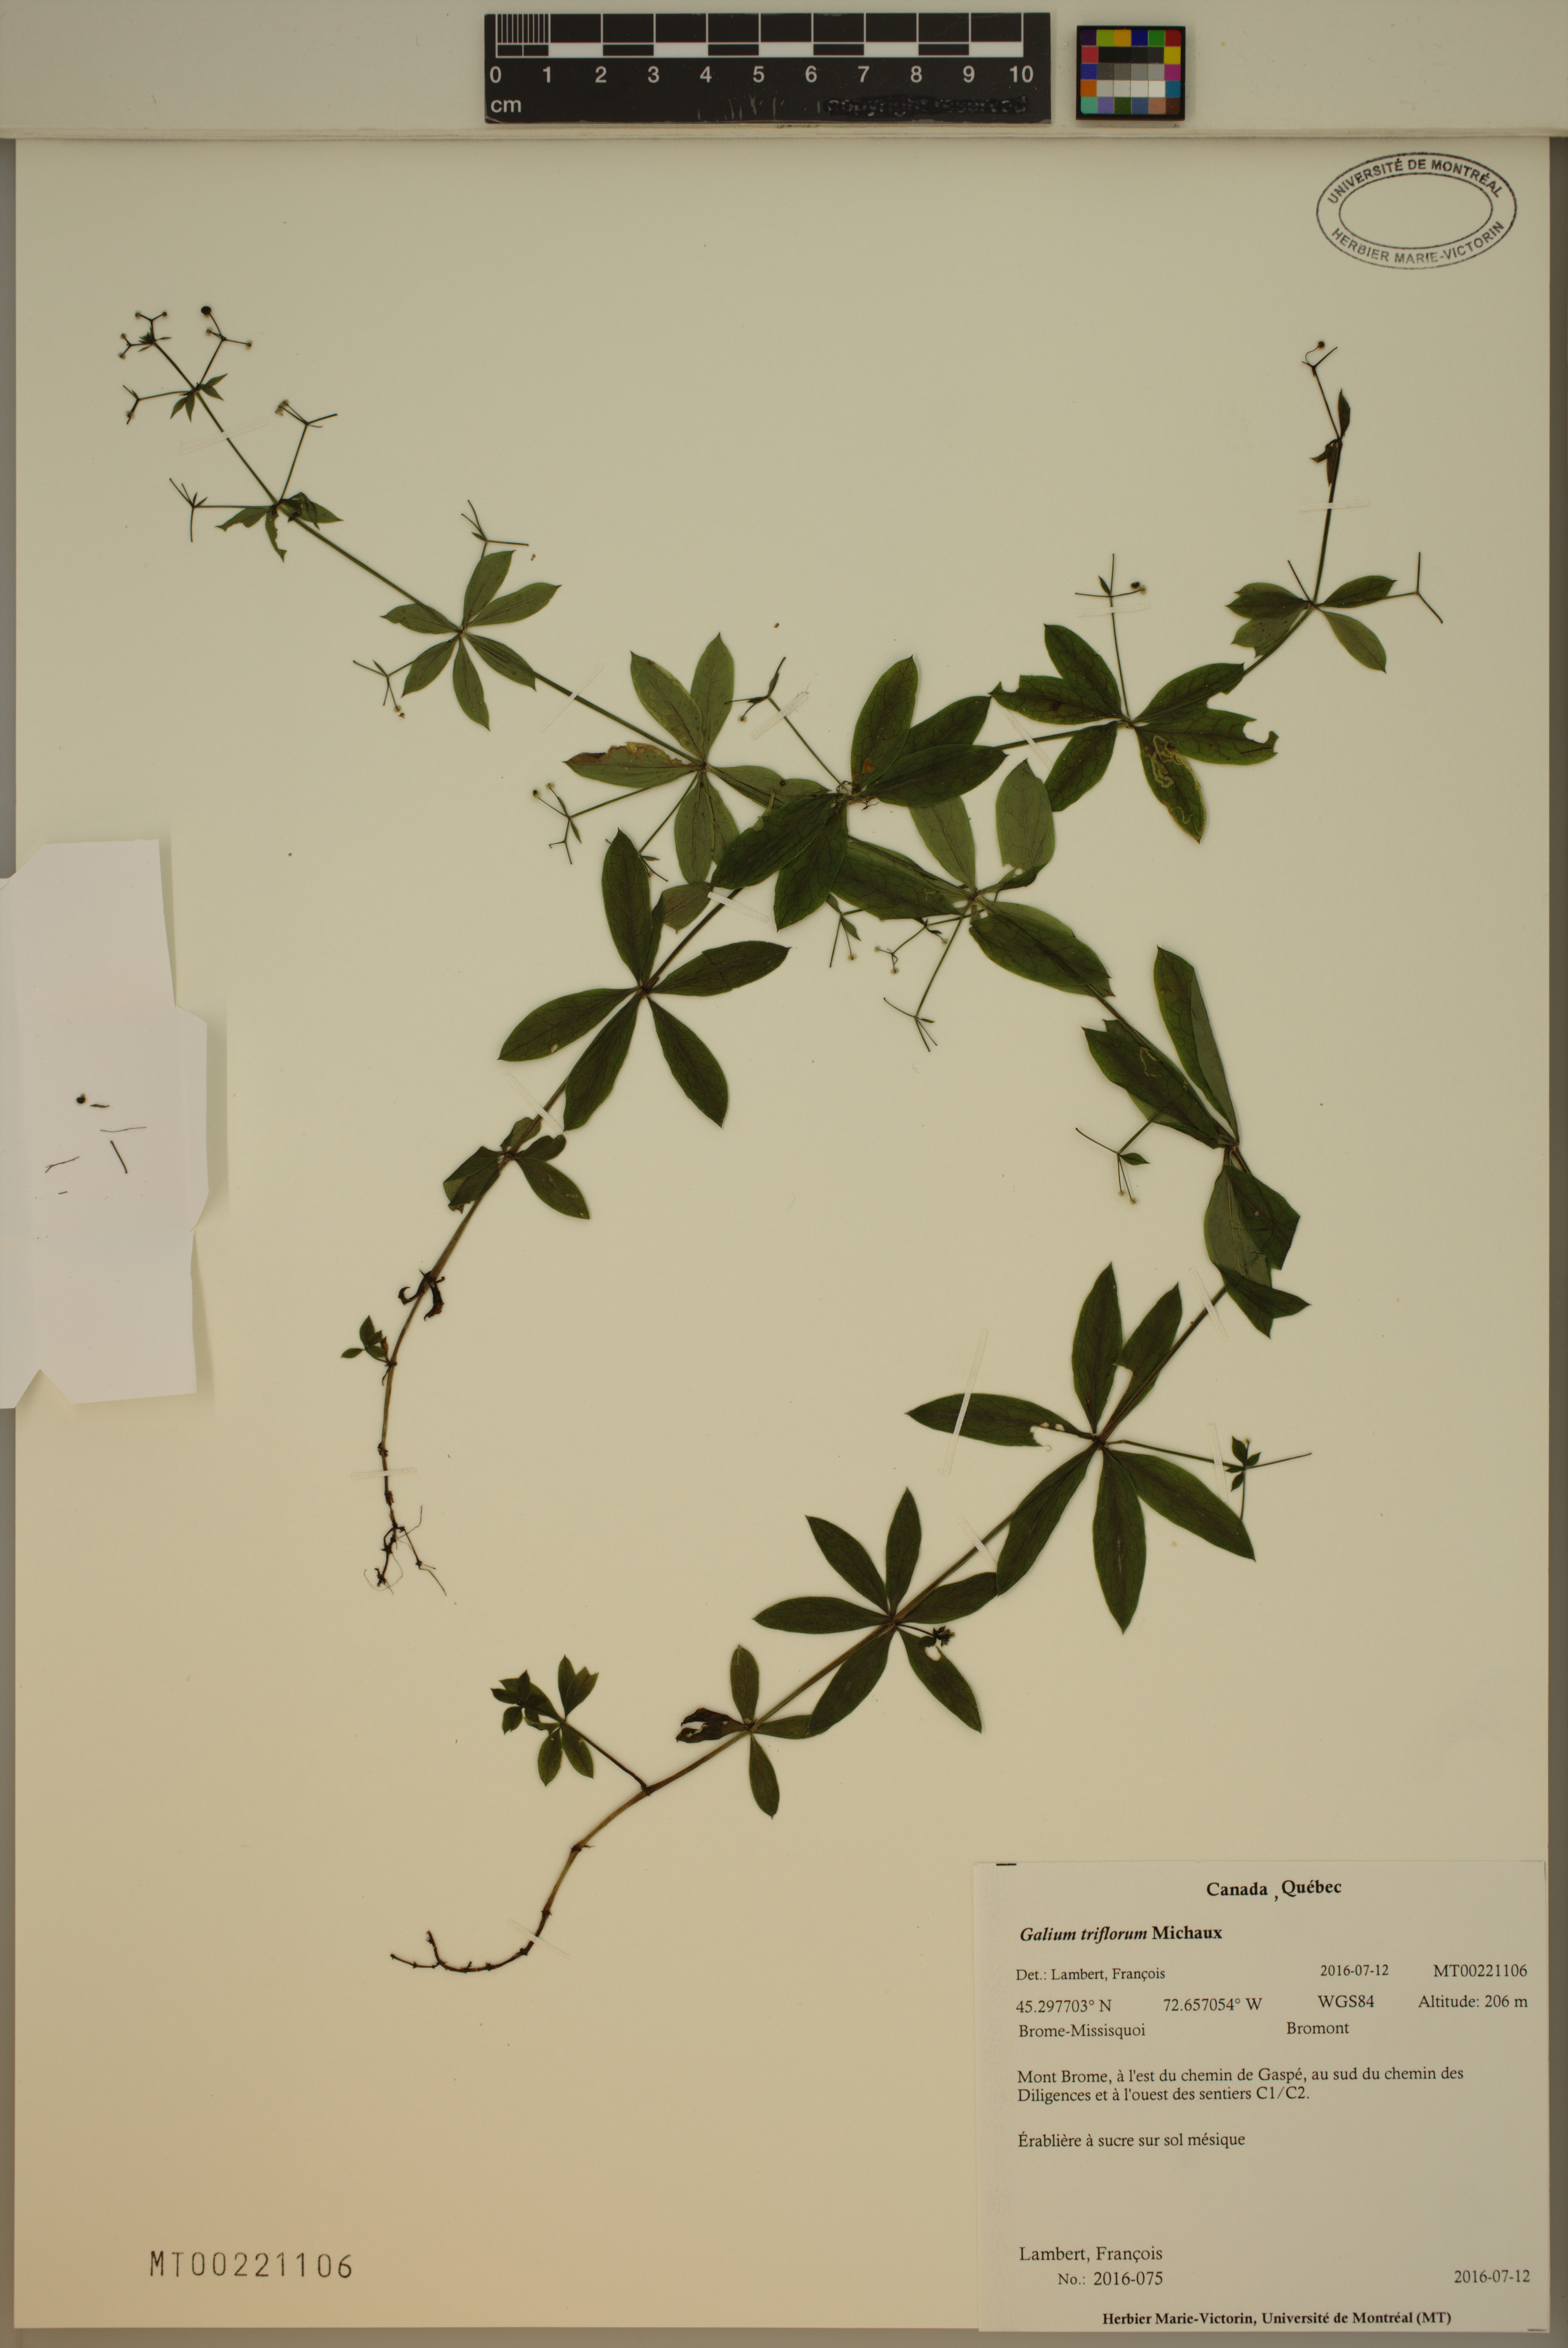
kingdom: Plantae
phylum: Tracheophyta
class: Magnoliopsida
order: Gentianales
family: Rubiaceae
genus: Galium
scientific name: Galium triflorum
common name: Fragrant bedstraw
